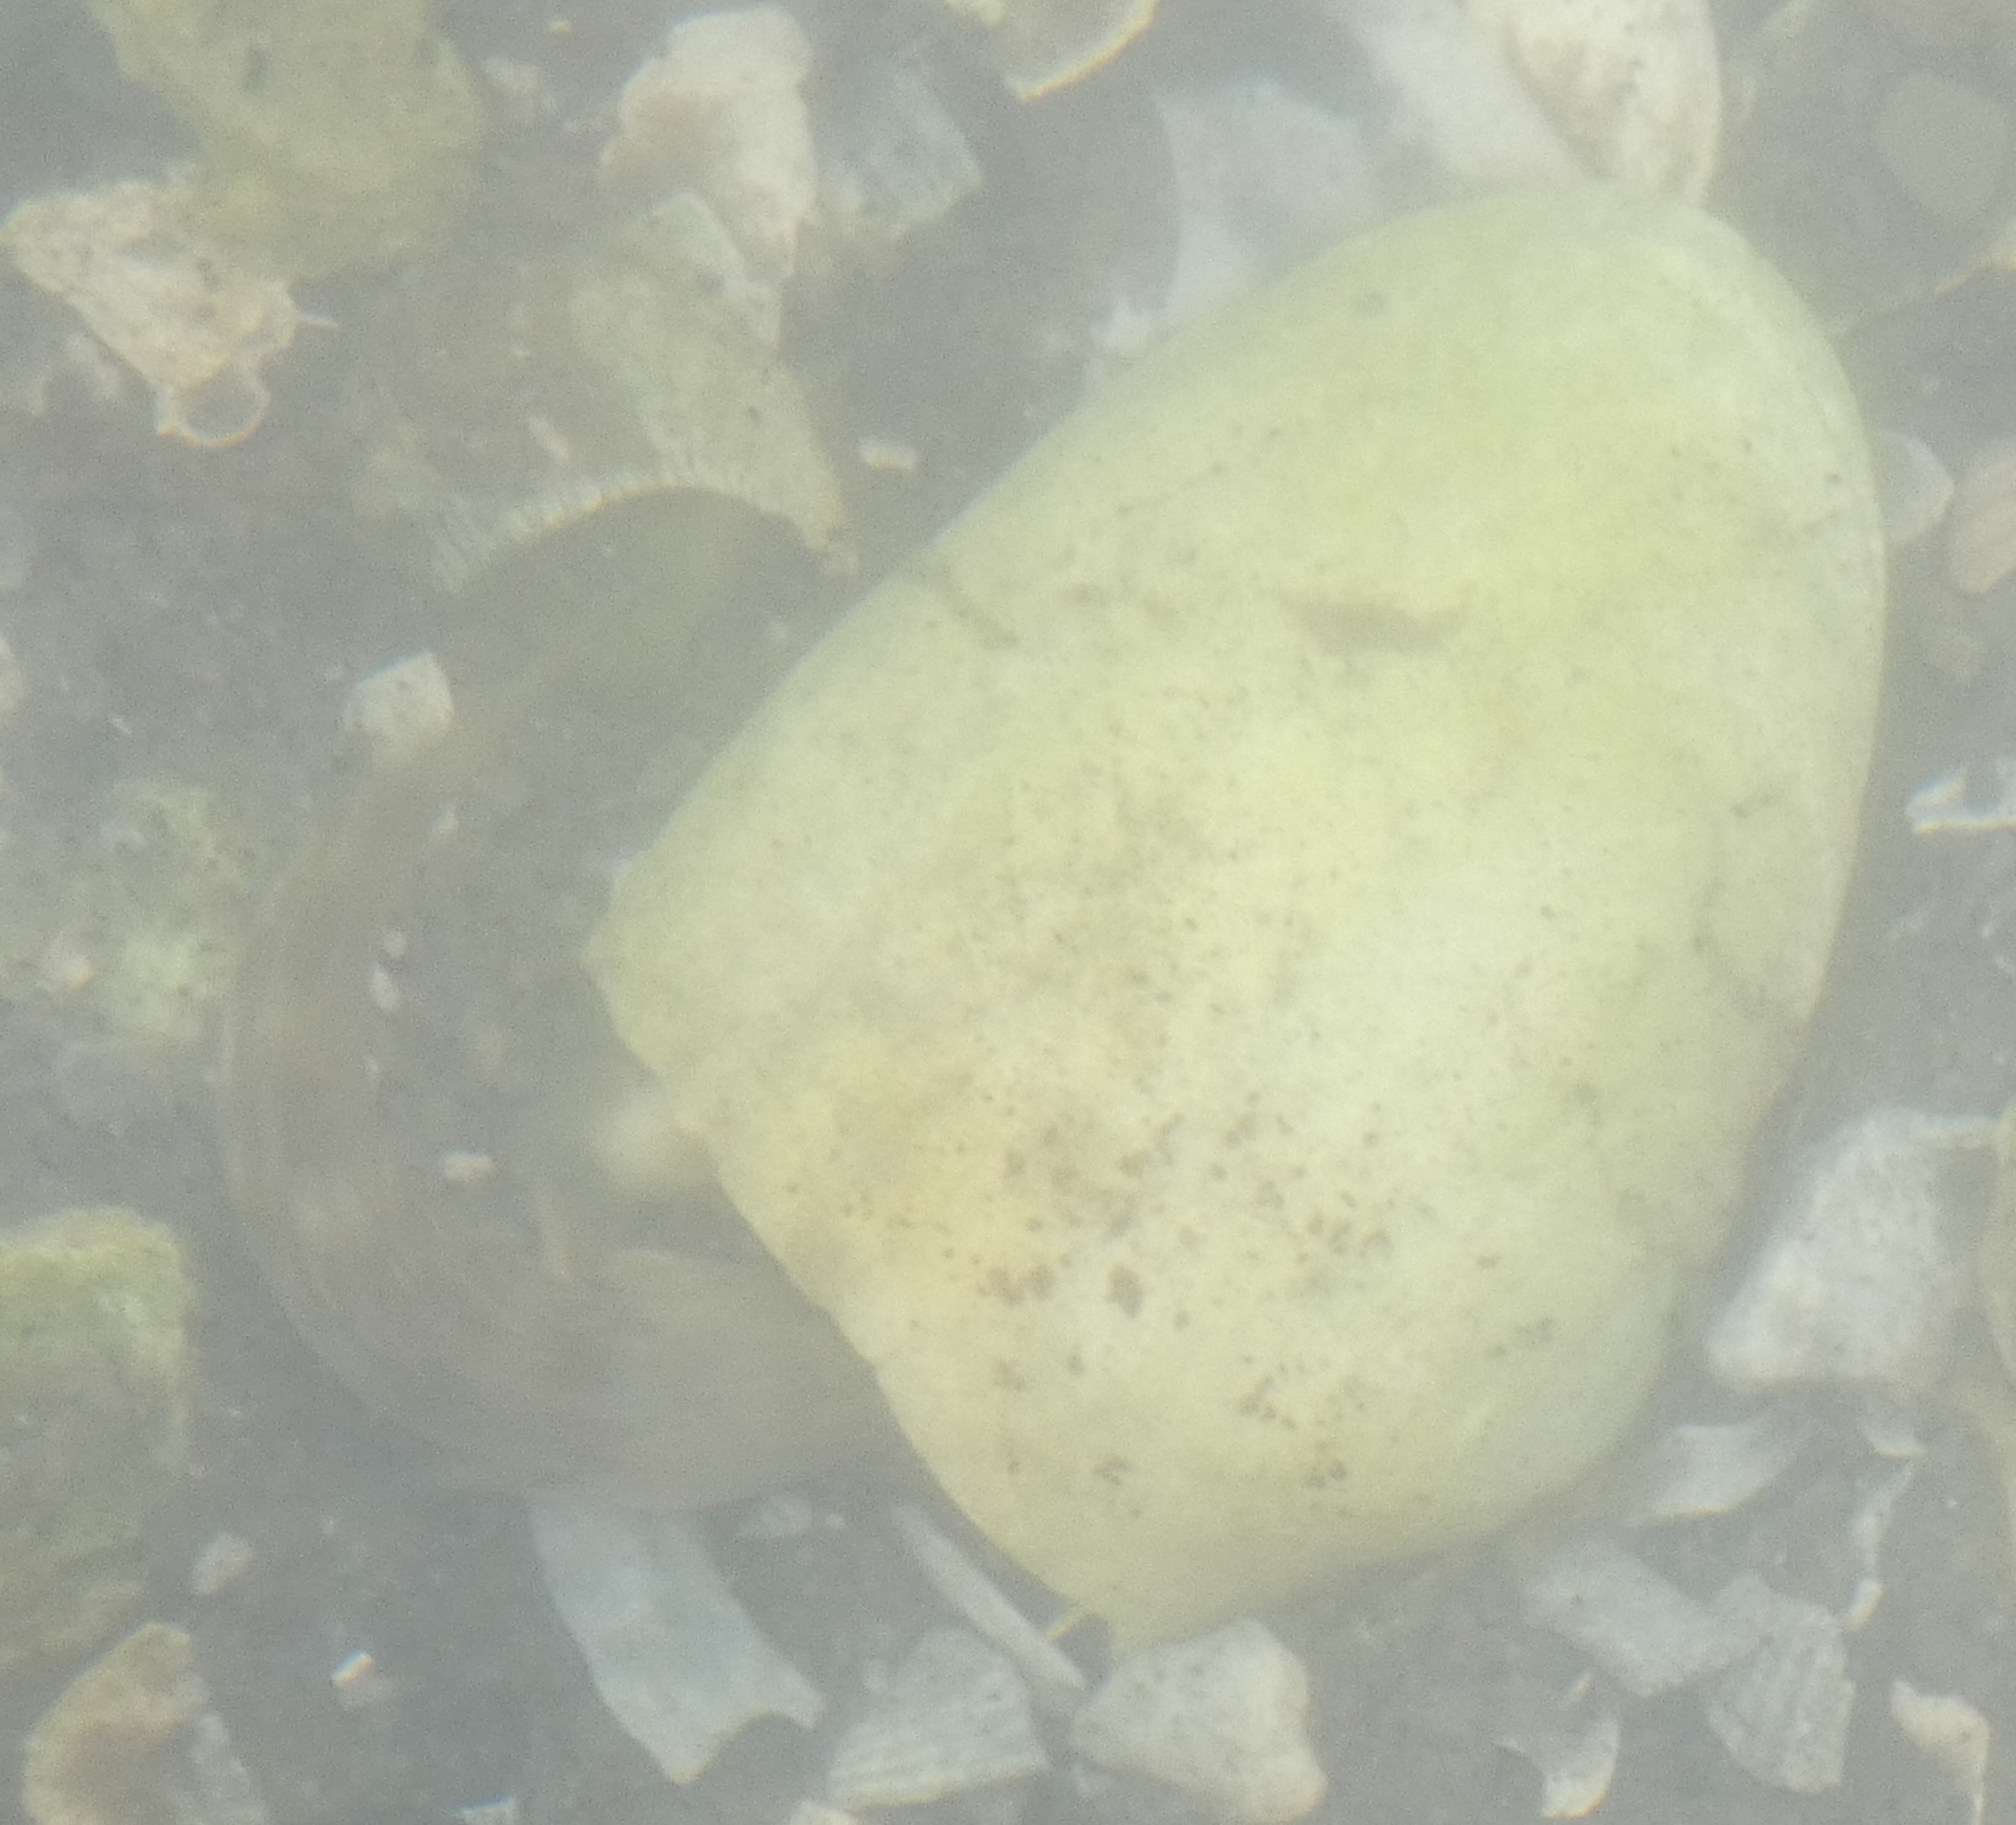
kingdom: Animalia
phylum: Chordata
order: Perciformes
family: Gobiidae
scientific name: Gobiidae
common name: Kutlingefamilien
